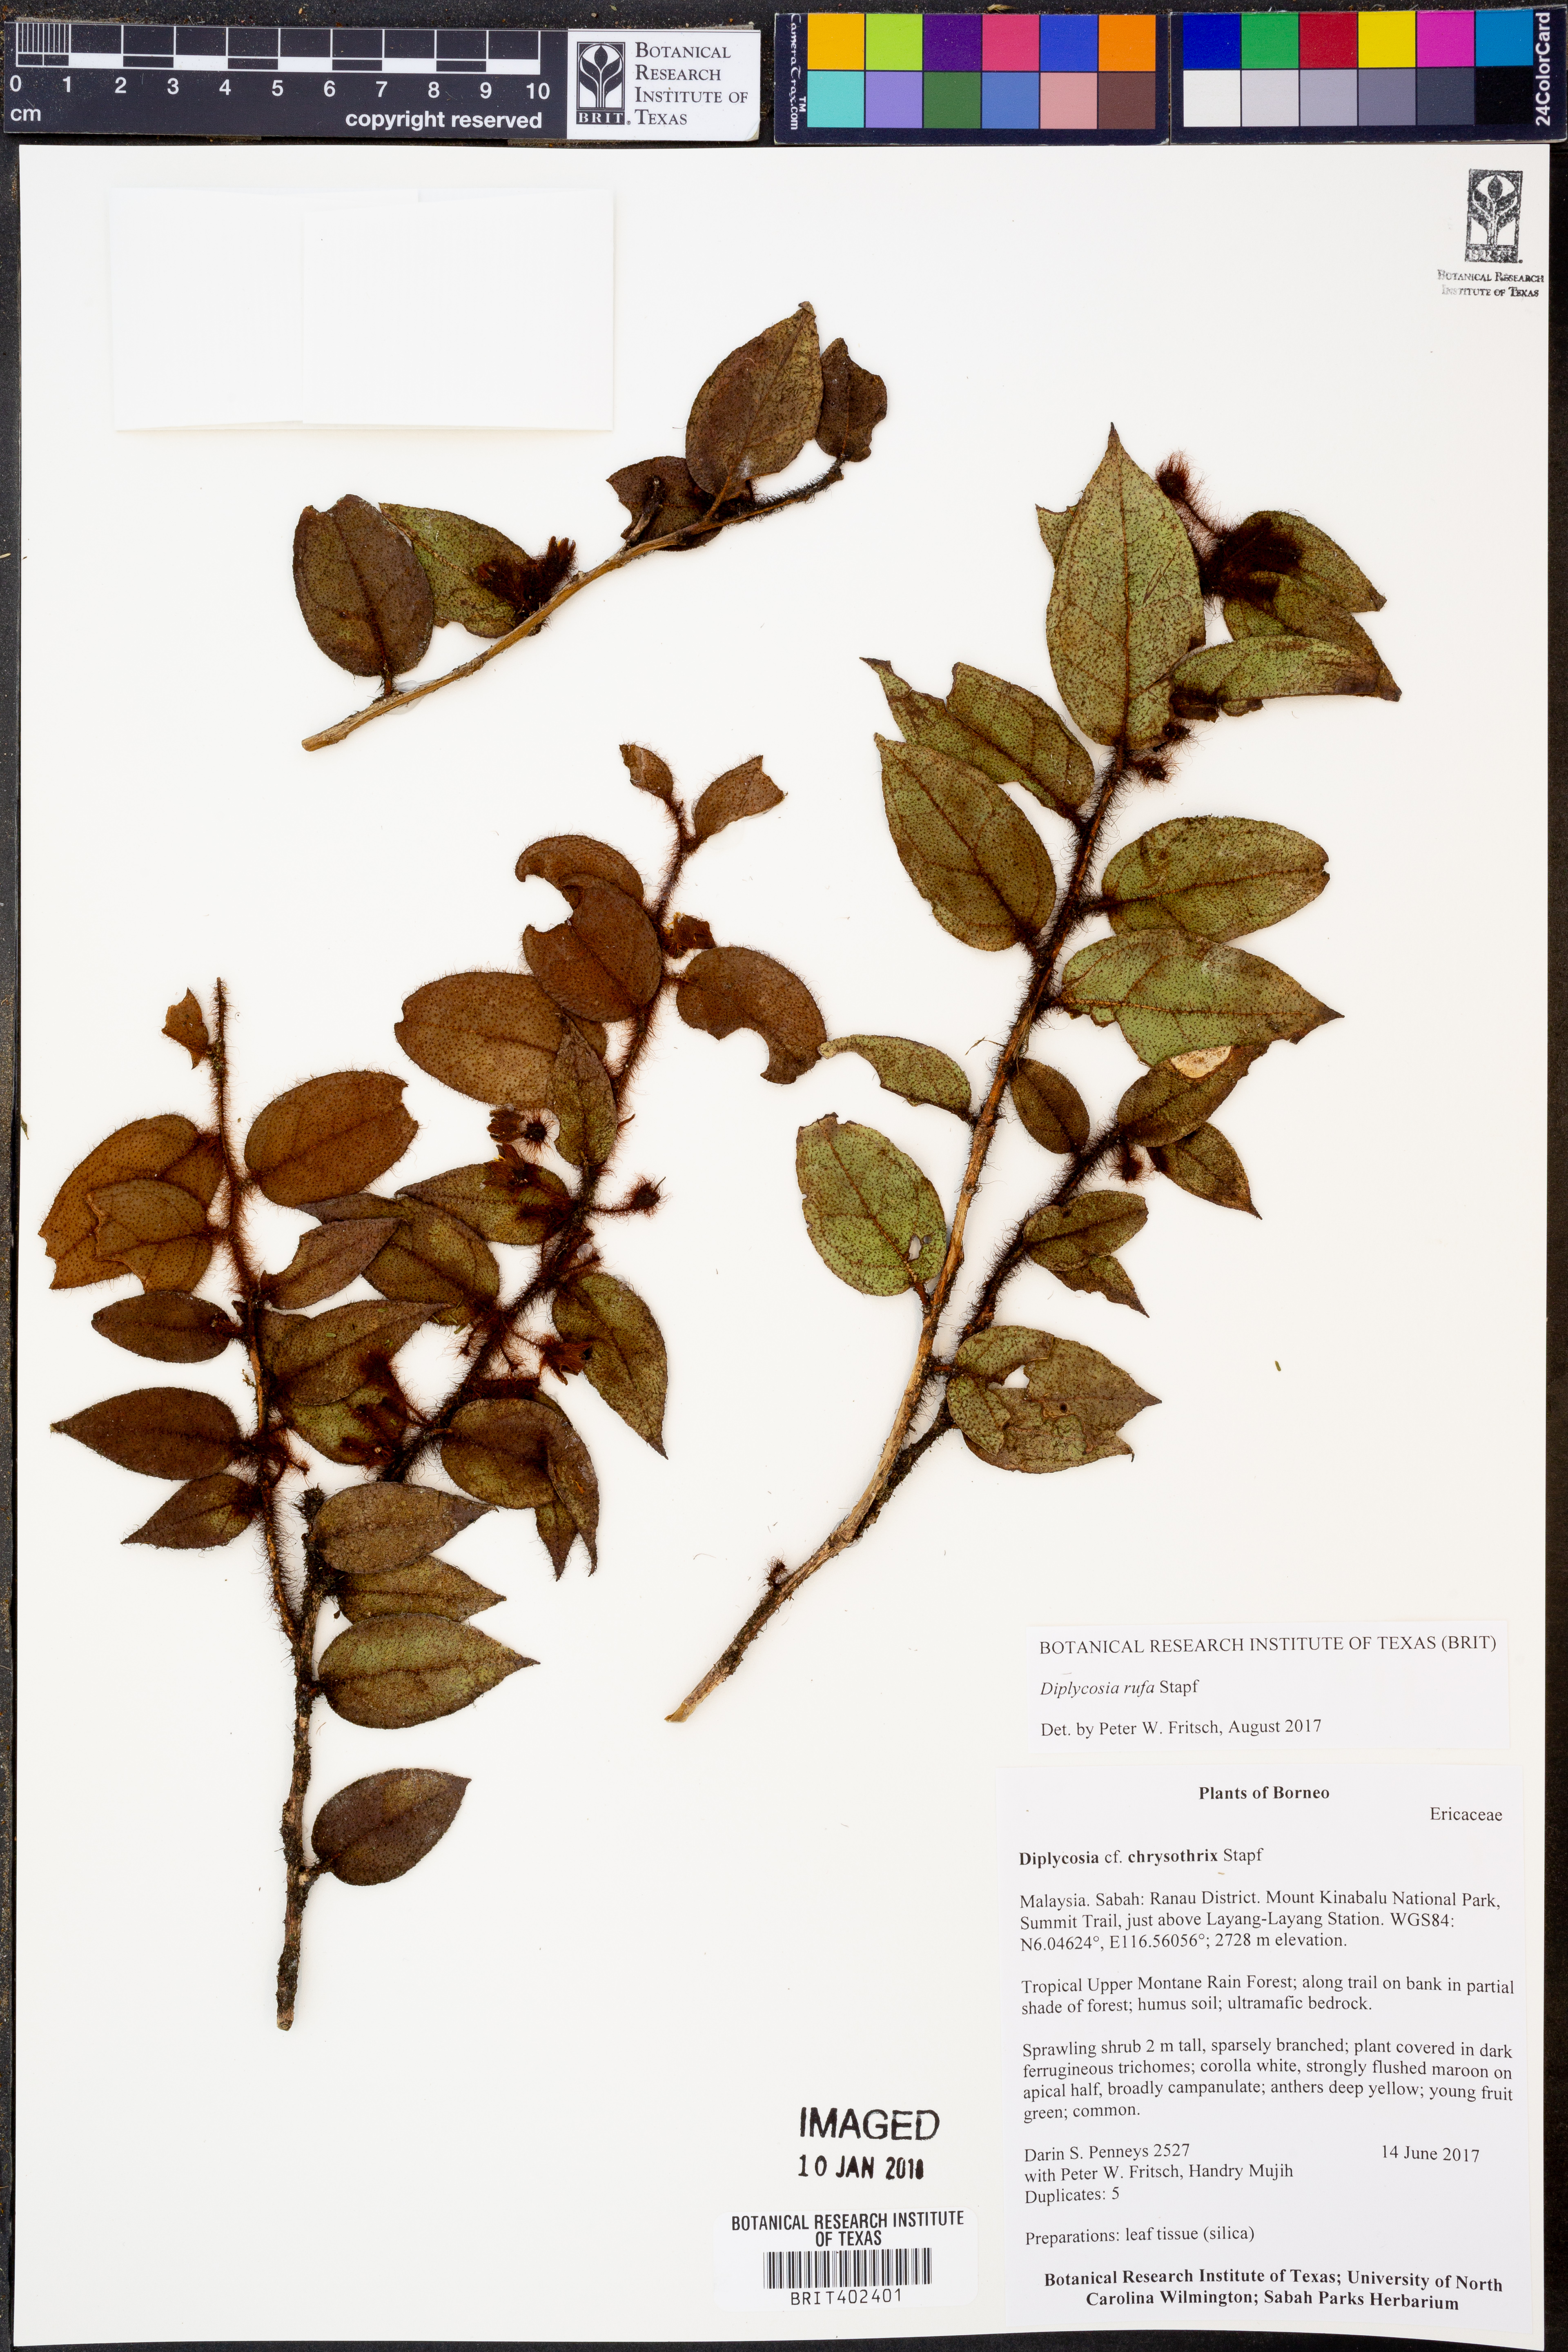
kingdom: Plantae
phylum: Tracheophyta
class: Magnoliopsida
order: Ericales
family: Ericaceae
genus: Gaultheria
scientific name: Gaultheria rufa
